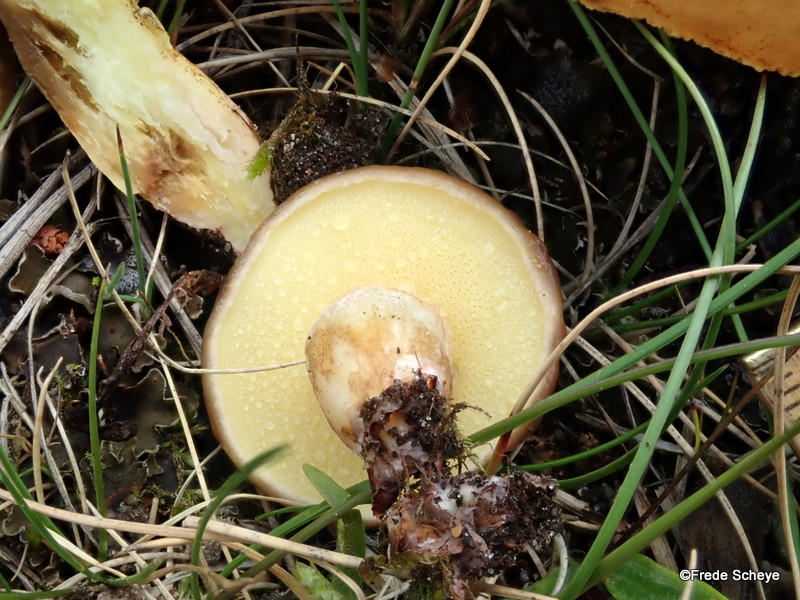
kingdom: Fungi
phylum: Basidiomycota
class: Agaricomycetes
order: Boletales
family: Suillaceae
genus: Suillus
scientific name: Suillus granulatus
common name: kornet slimrørhat
